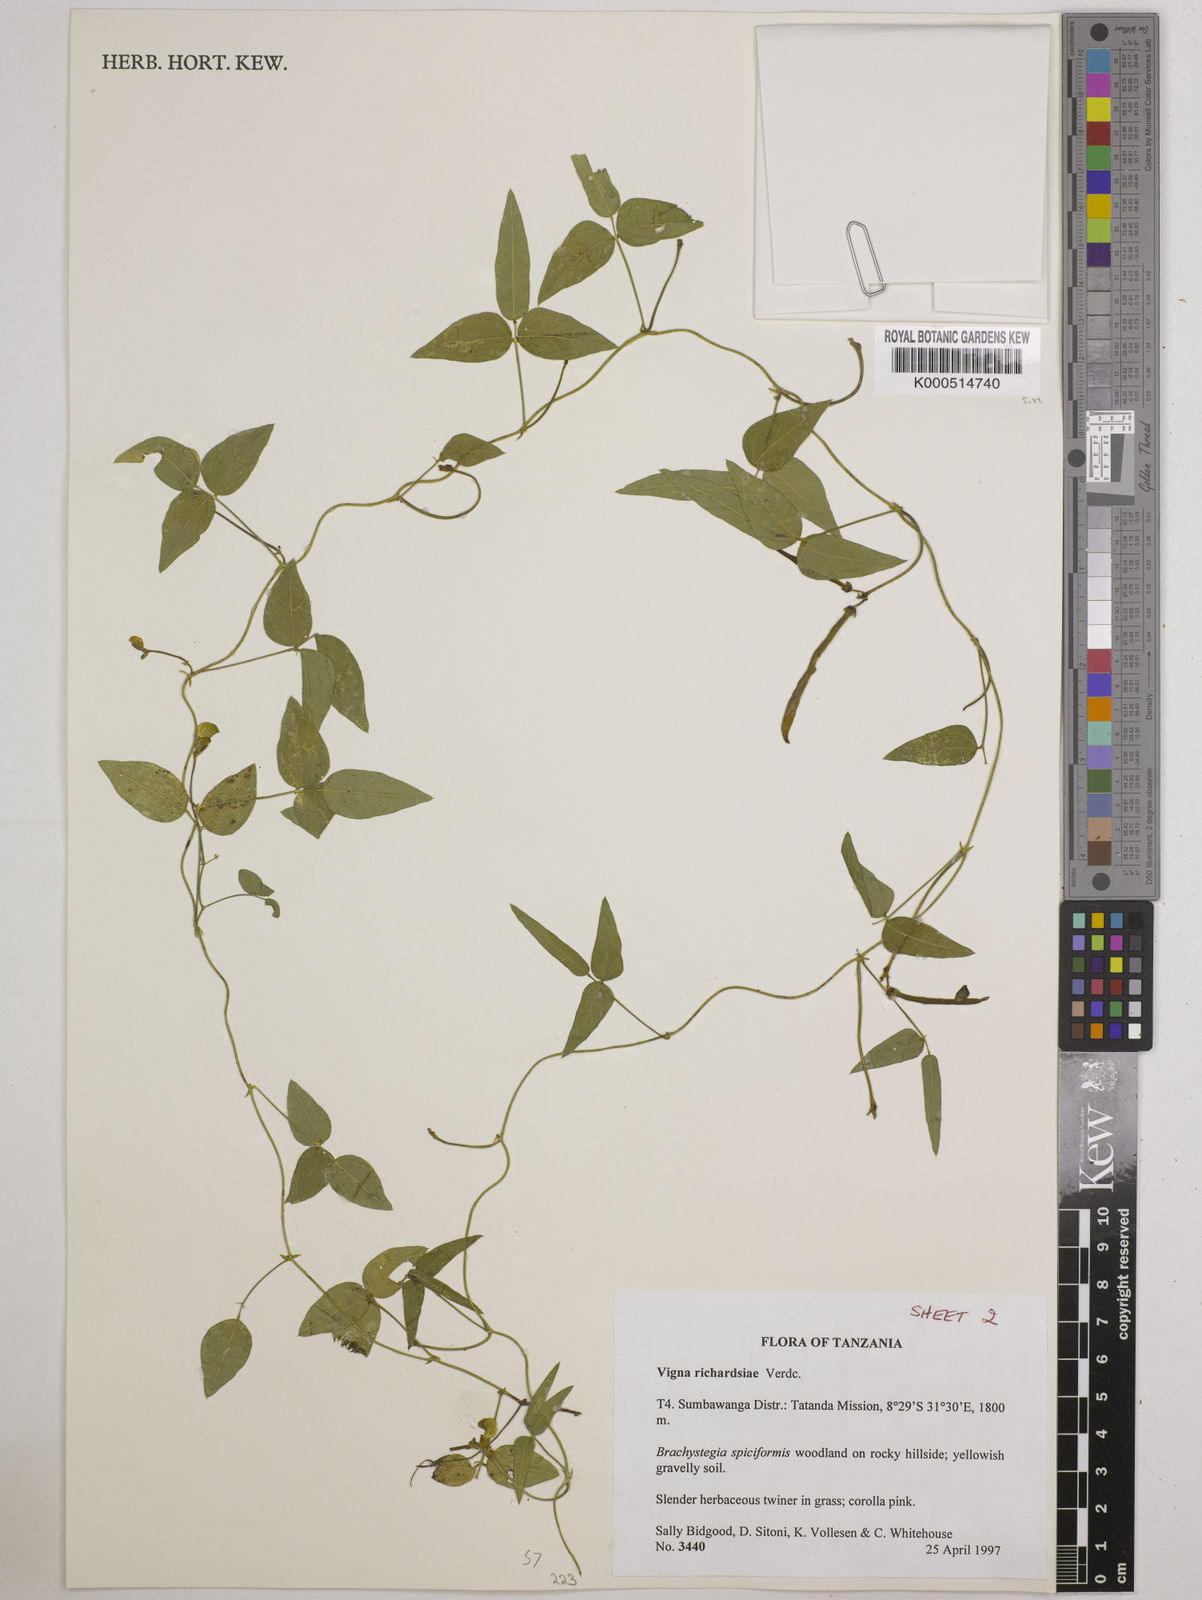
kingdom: Plantae
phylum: Tracheophyta
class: Magnoliopsida
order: Fabales
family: Fabaceae
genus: Vigna
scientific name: Vigna richardsiae
